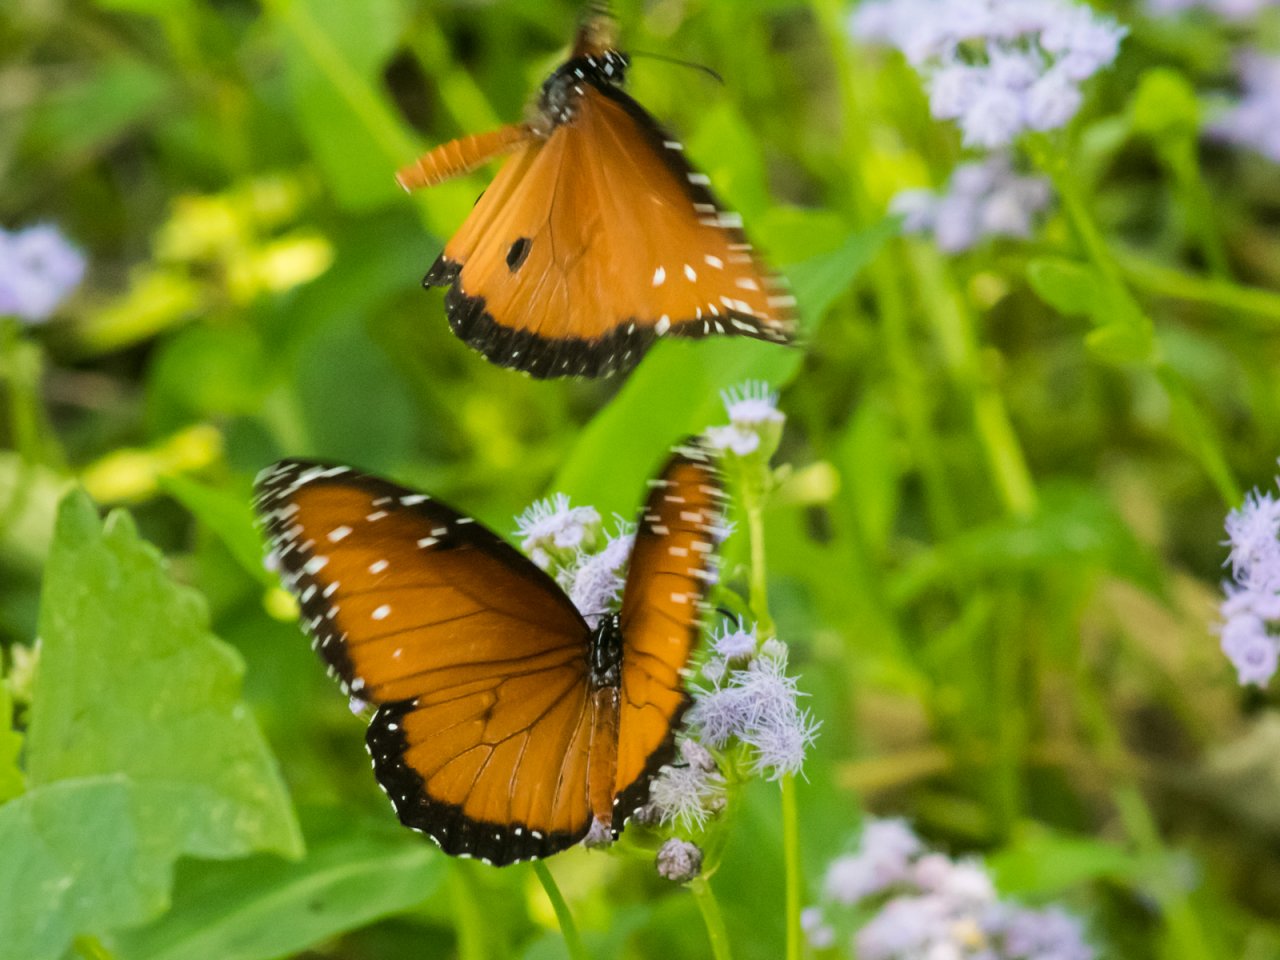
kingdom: Animalia
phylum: Arthropoda
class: Insecta
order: Lepidoptera
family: Nymphalidae
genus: Danaus
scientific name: Danaus gilippus
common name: Queen
